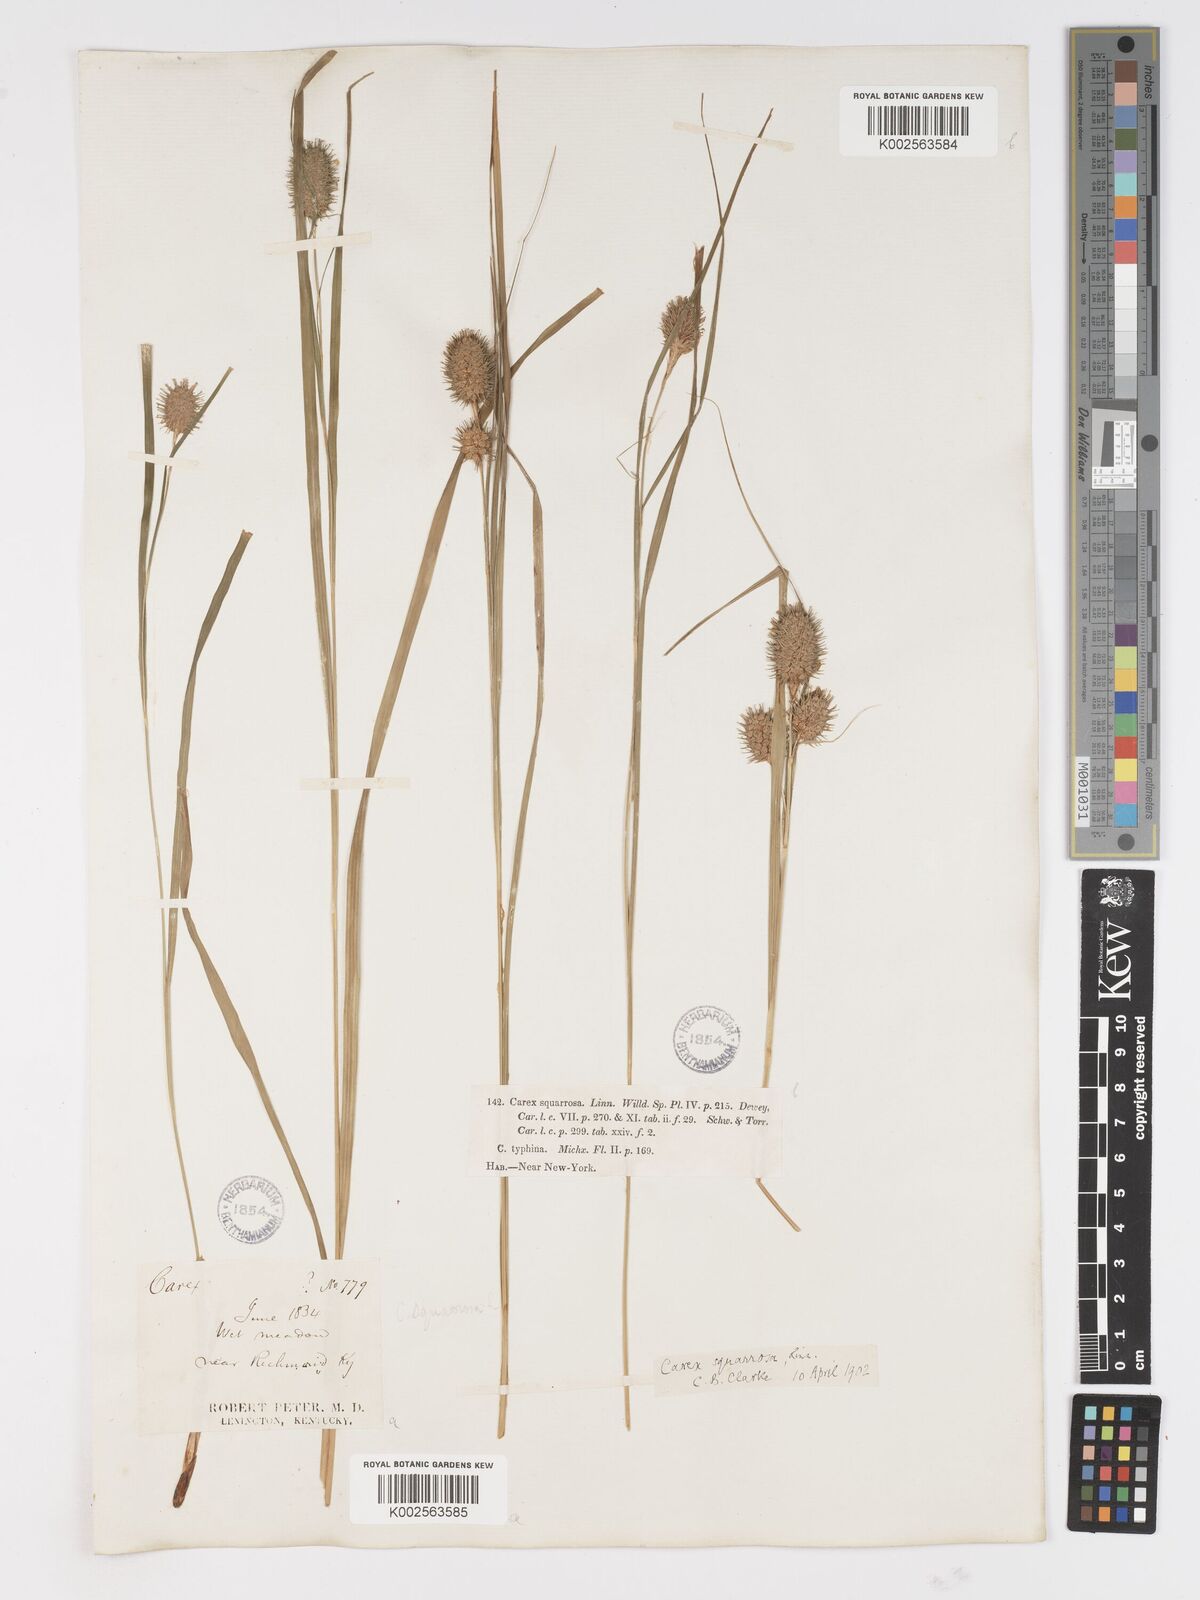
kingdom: Plantae
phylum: Tracheophyta
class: Liliopsida
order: Poales
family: Cyperaceae
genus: Carex
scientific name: Carex typhina
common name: Cattail sedge
